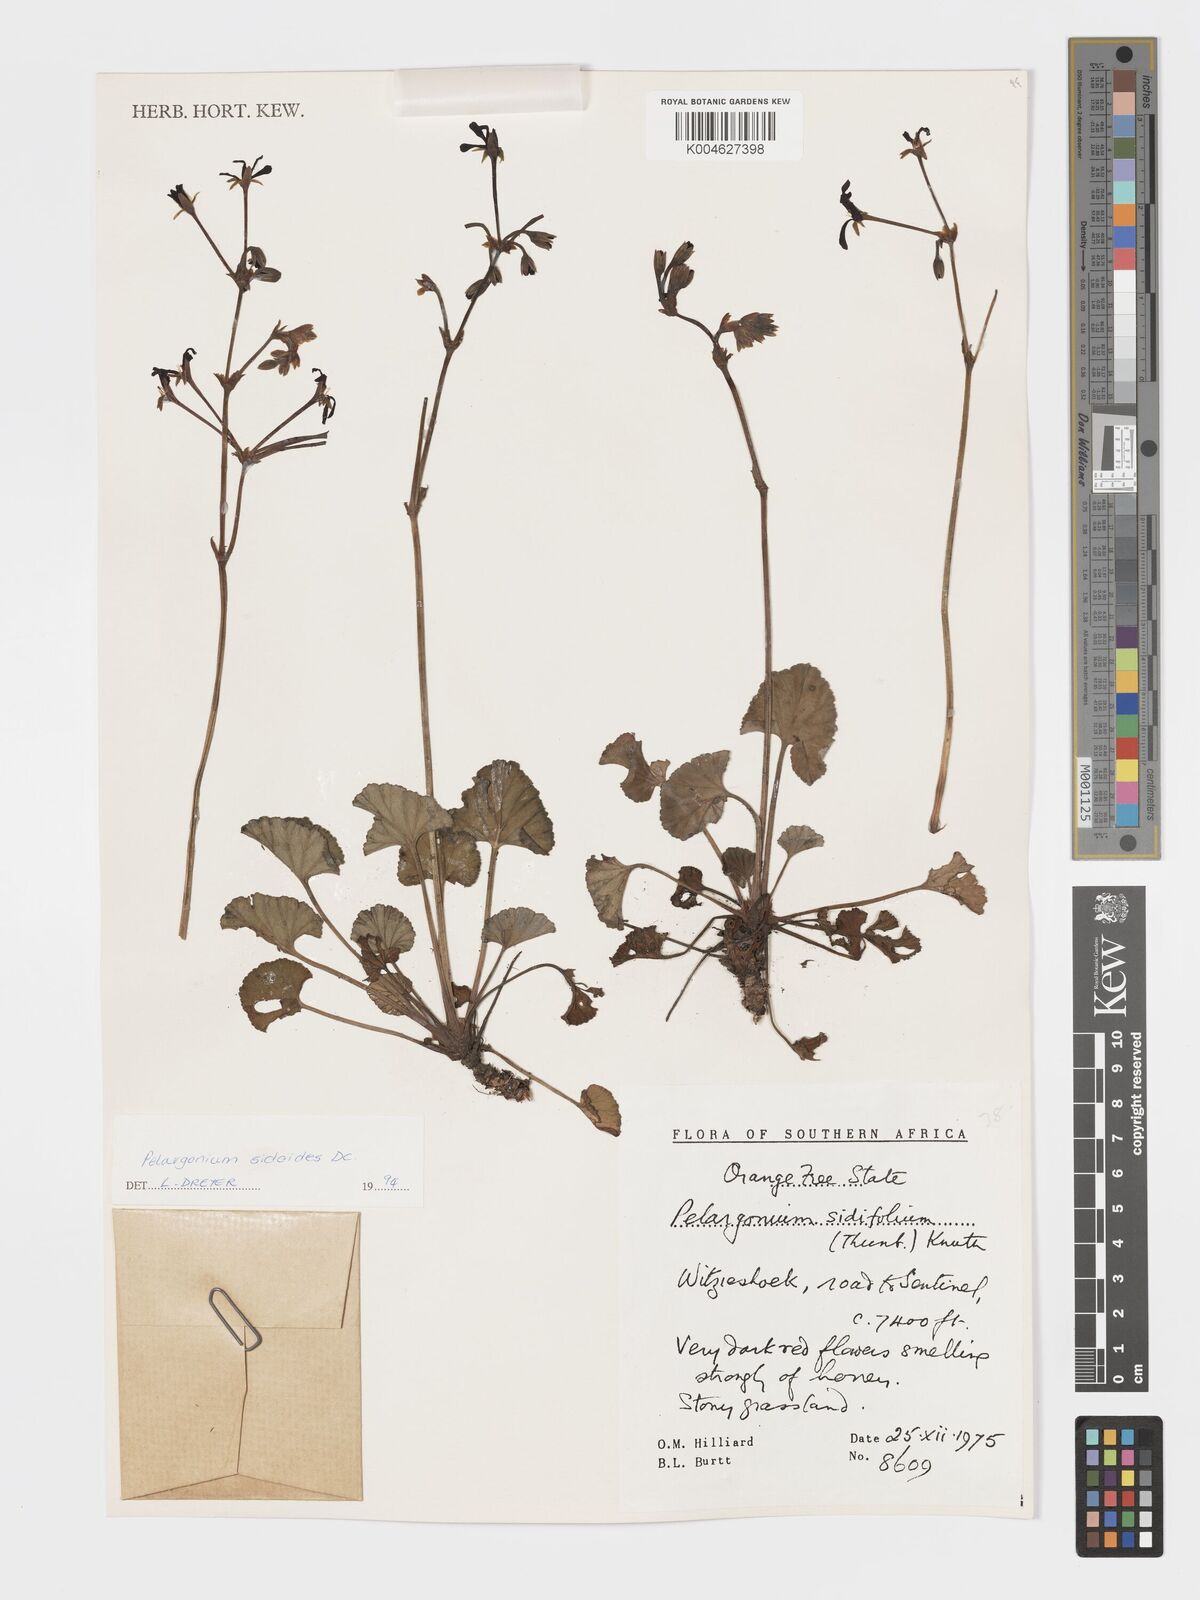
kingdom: Plantae
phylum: Tracheophyta
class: Magnoliopsida
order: Geraniales
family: Geraniaceae
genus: Pelargonium
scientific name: Pelargonium sidoides
